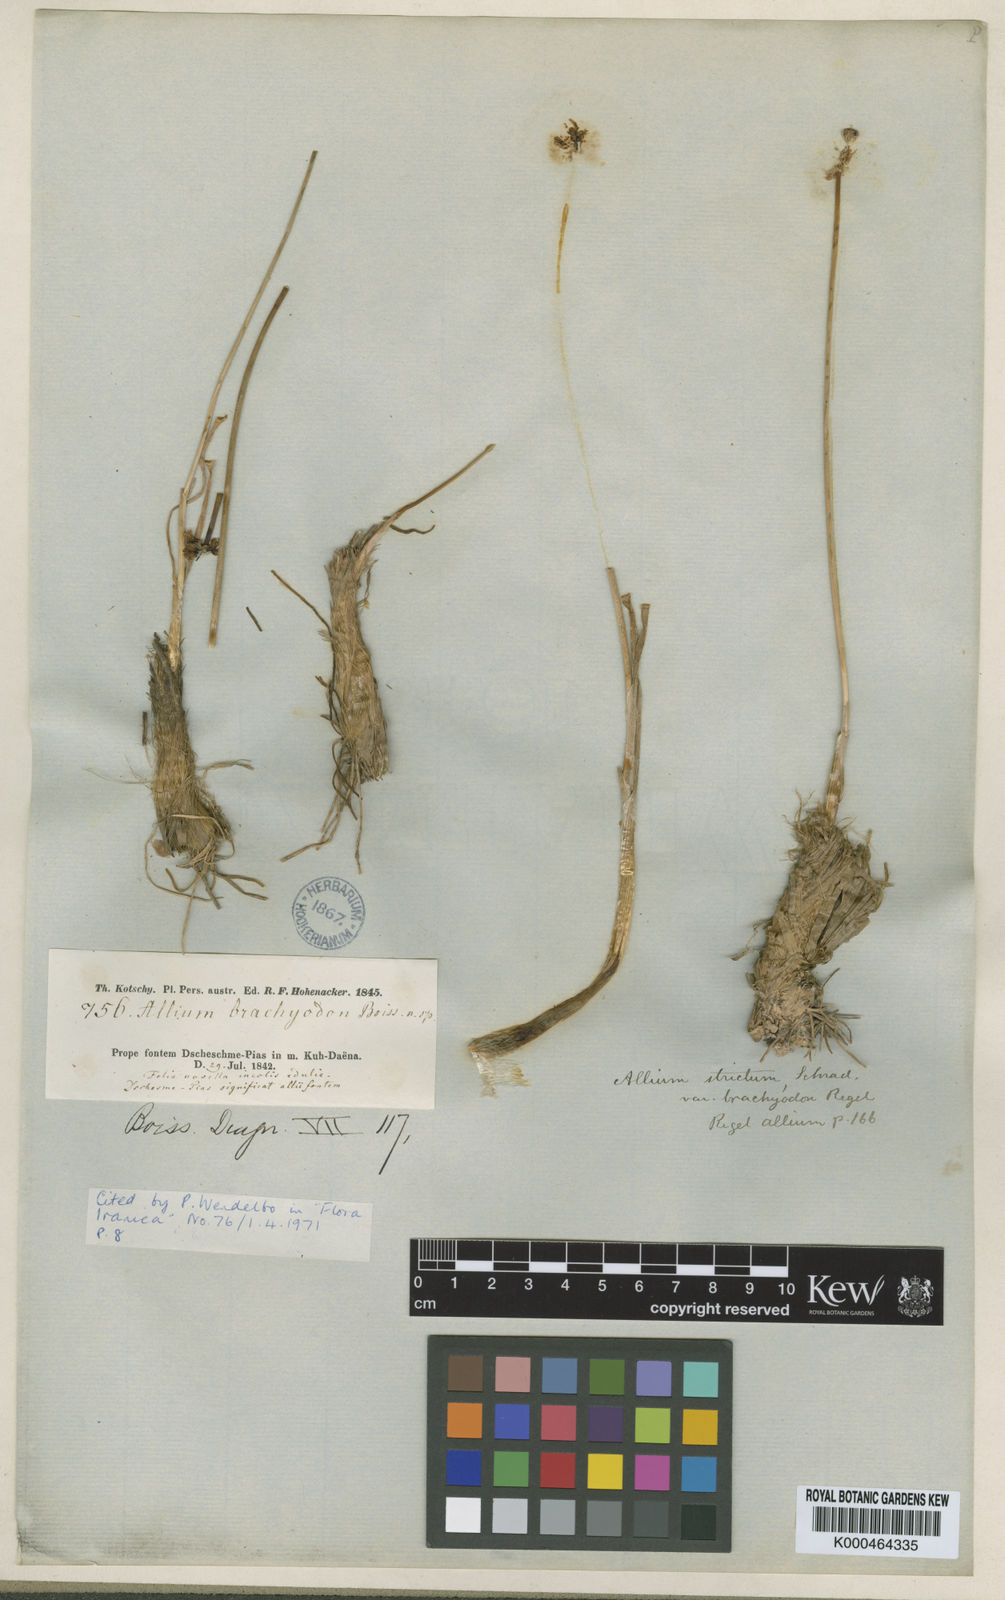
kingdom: Plantae
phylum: Tracheophyta
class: Liliopsida
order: Asparagales
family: Amaryllidaceae
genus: Allium
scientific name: Allium brachyodon
